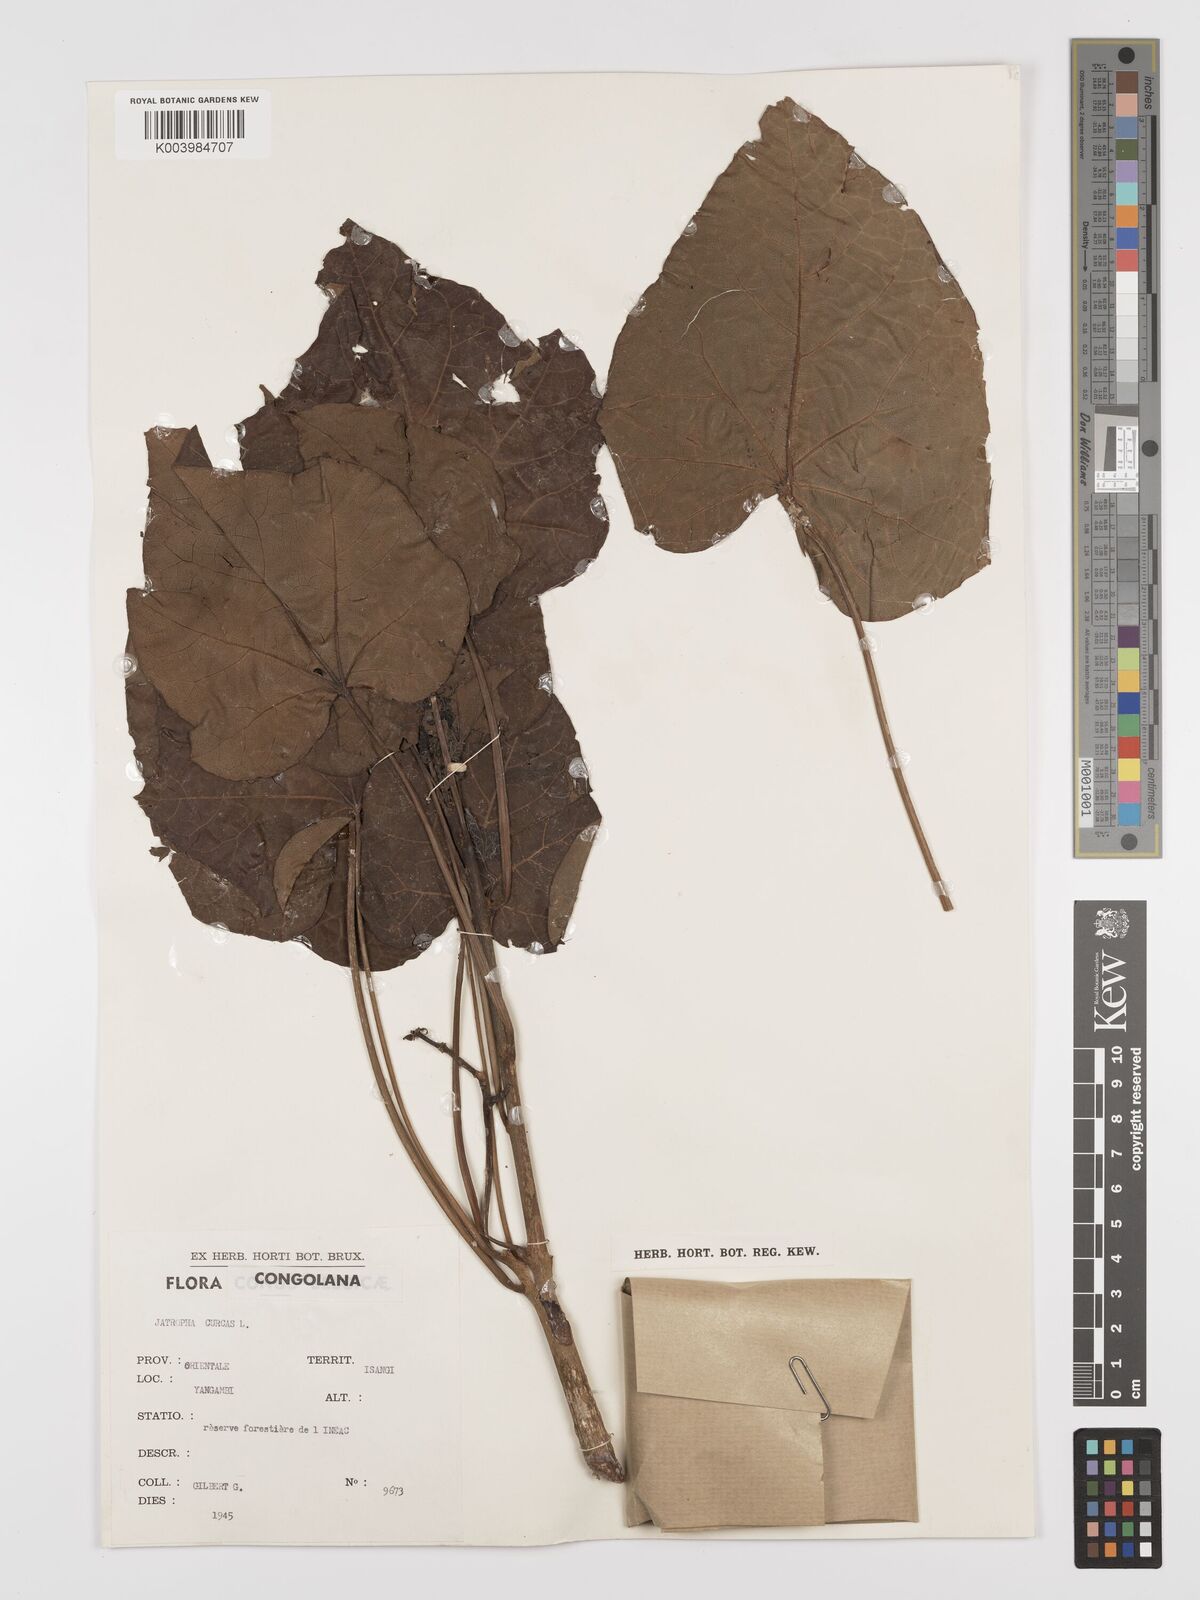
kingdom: Plantae
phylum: Tracheophyta
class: Magnoliopsida
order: Malpighiales
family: Euphorbiaceae
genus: Jatropha
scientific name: Jatropha curcas
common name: Barbados nut
